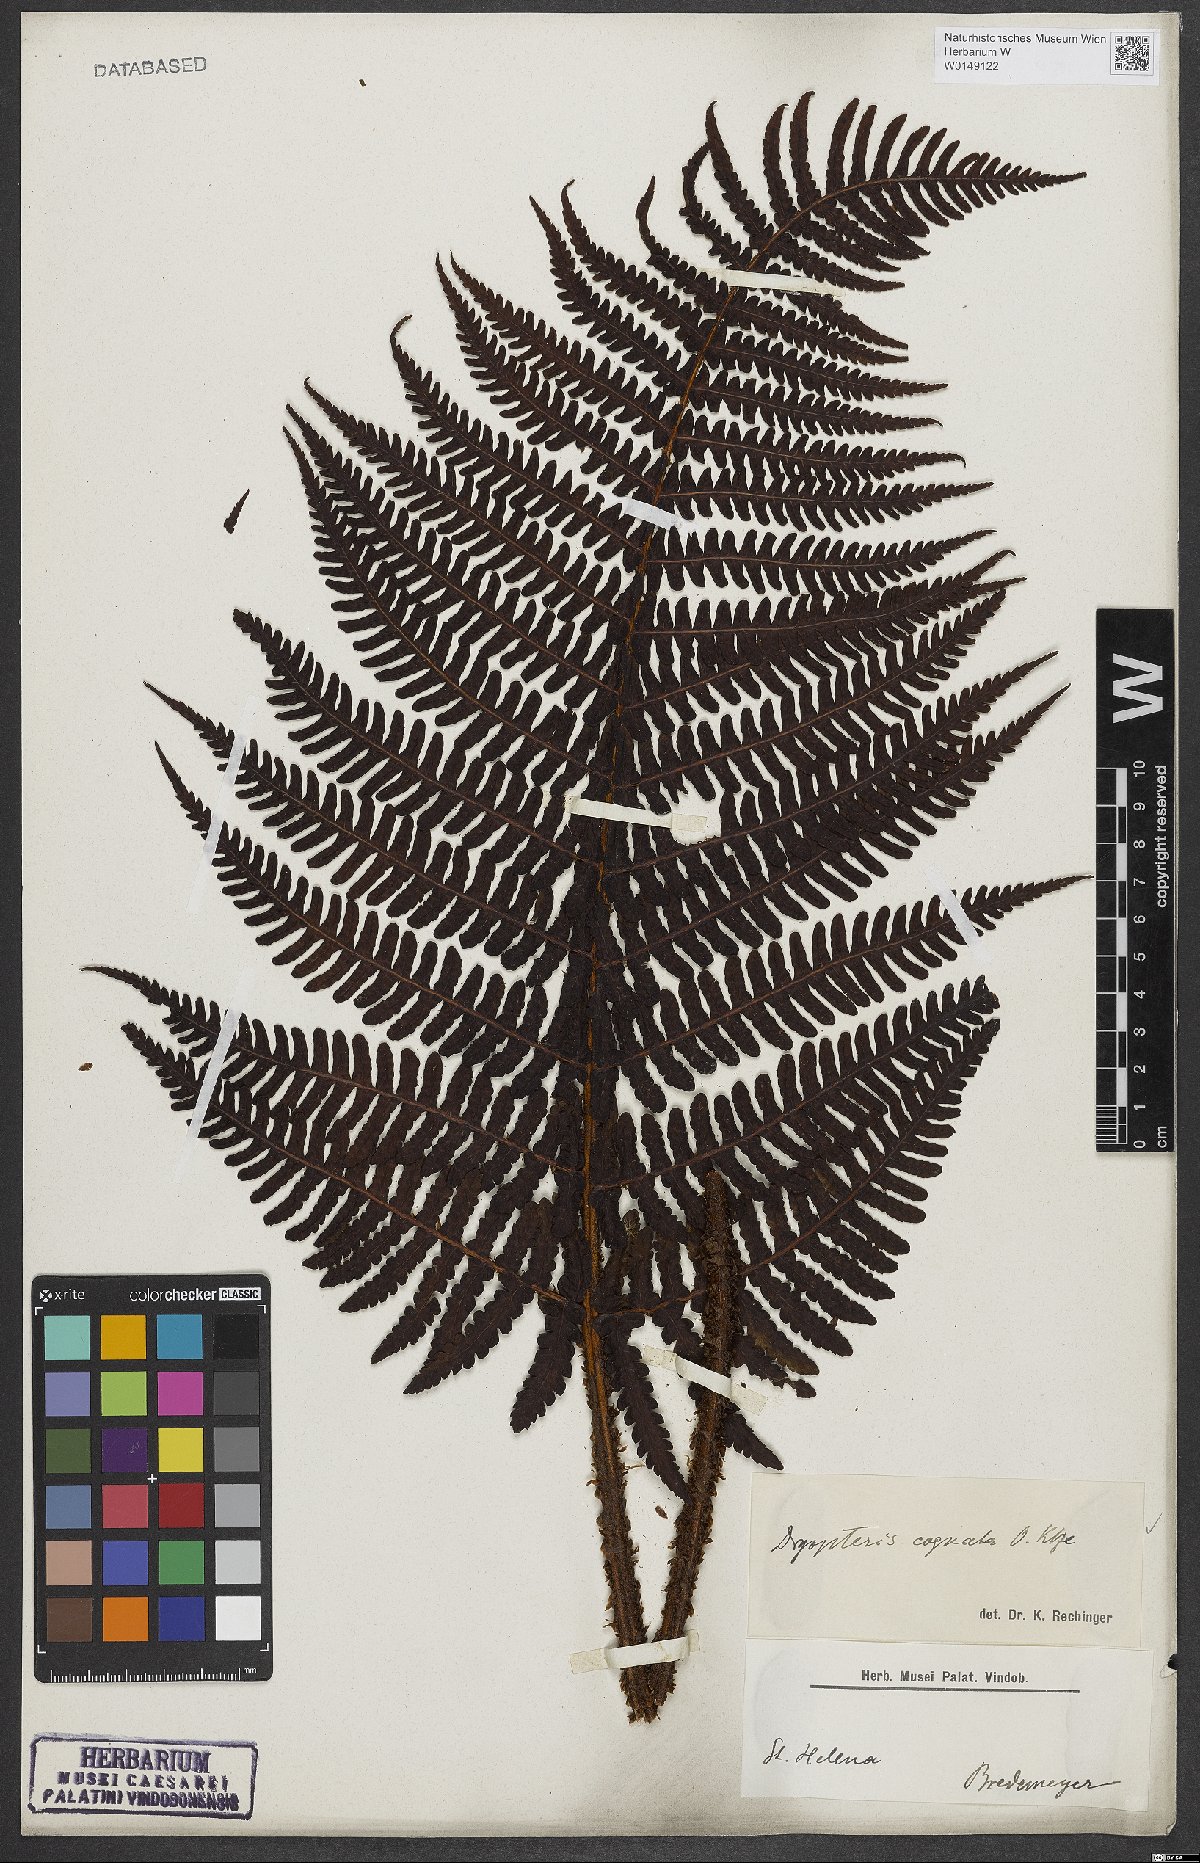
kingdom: Plantae
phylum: Tracheophyta
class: Polypodiopsida
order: Polypodiales
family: Dryopteridaceae
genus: Dryopteris
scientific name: Dryopteris cognata
